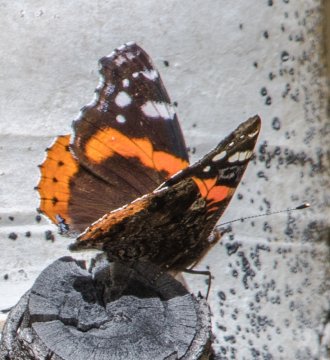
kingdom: Animalia
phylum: Arthropoda
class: Insecta
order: Lepidoptera
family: Nymphalidae
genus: Vanessa
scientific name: Vanessa atalanta
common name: Red Admiral
